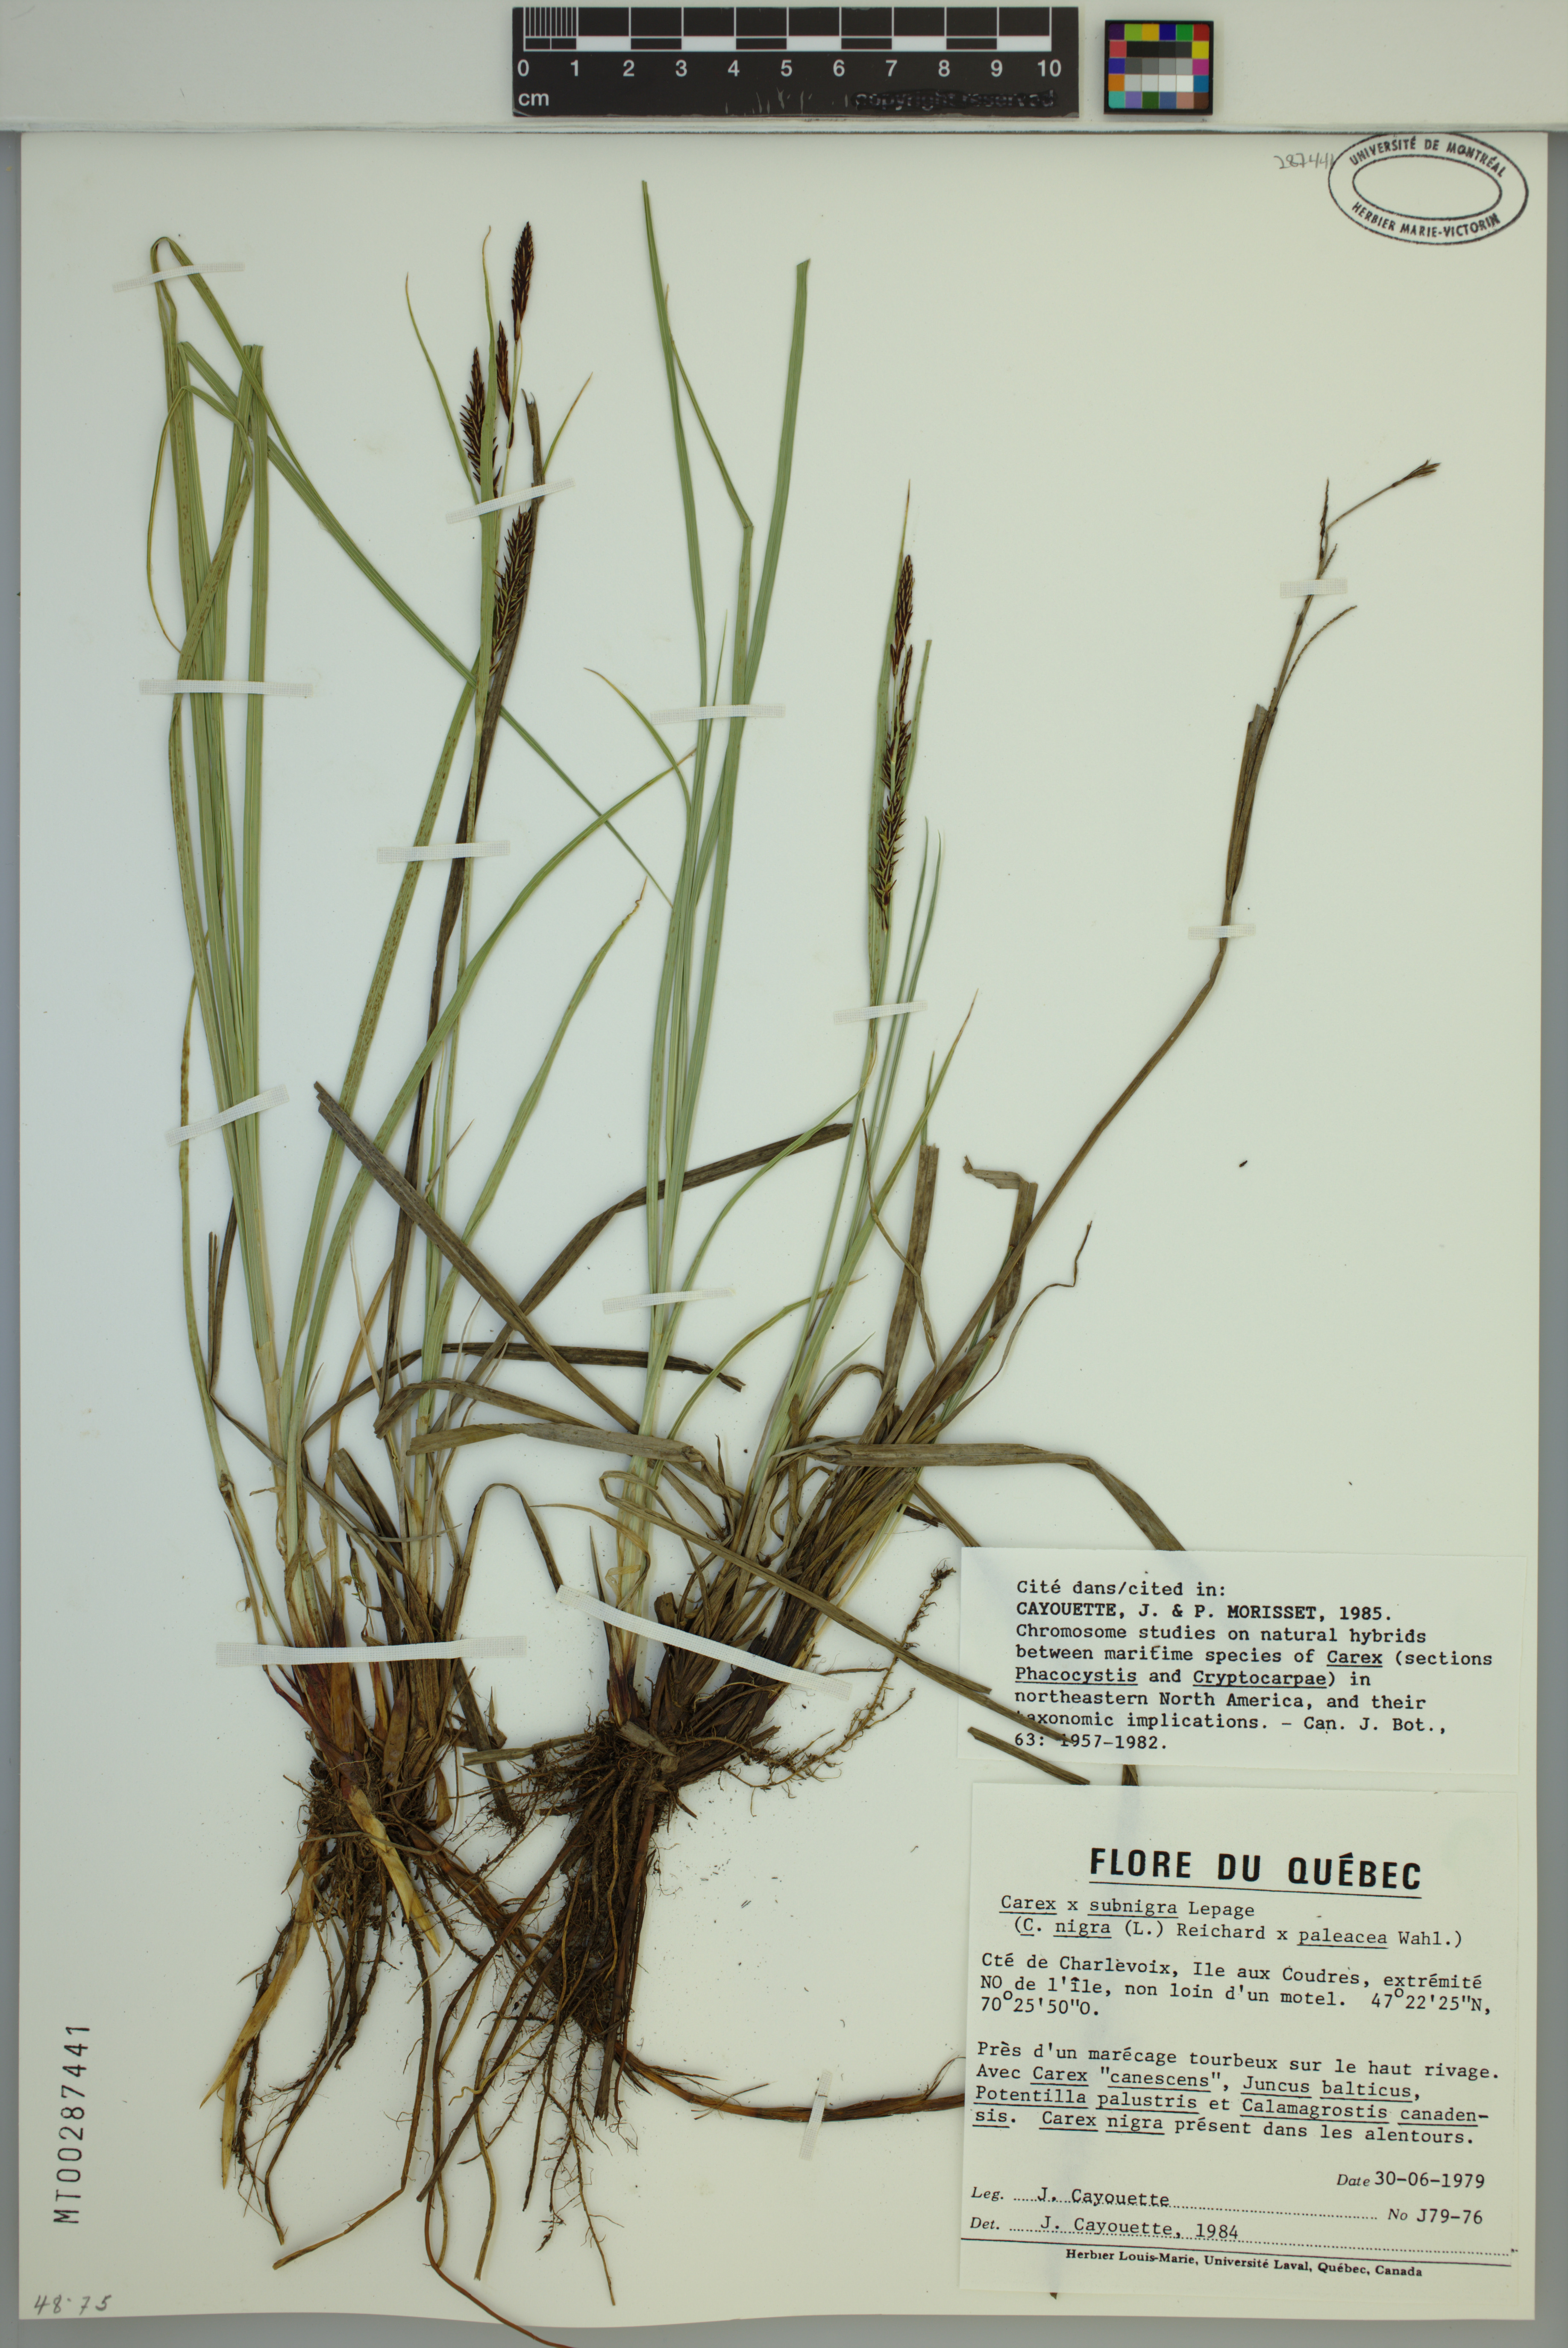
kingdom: Plantae
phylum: Tracheophyta
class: Liliopsida
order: Poales
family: Cyperaceae
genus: Carex
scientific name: Carex vacillans
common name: Sedge
